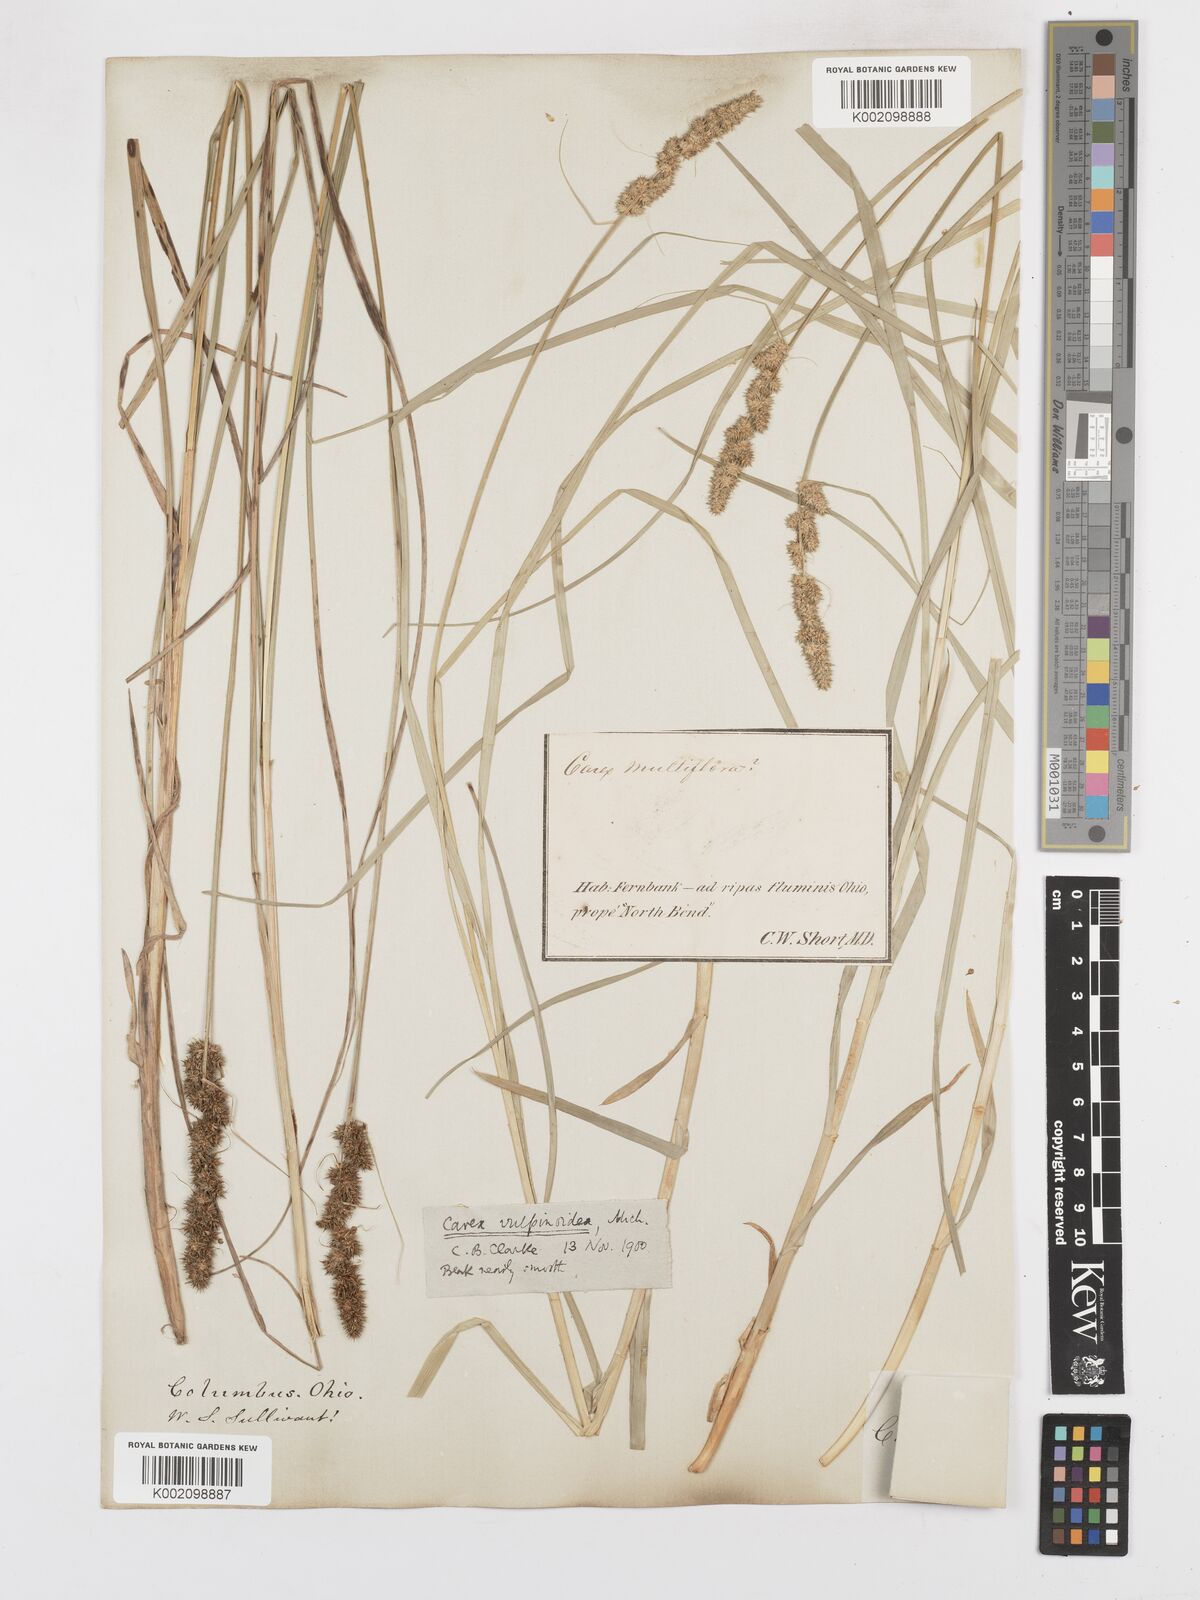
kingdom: Plantae
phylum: Tracheophyta
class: Liliopsida
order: Poales
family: Cyperaceae
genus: Carex
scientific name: Carex vulpinoidea
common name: American fox-sedge
